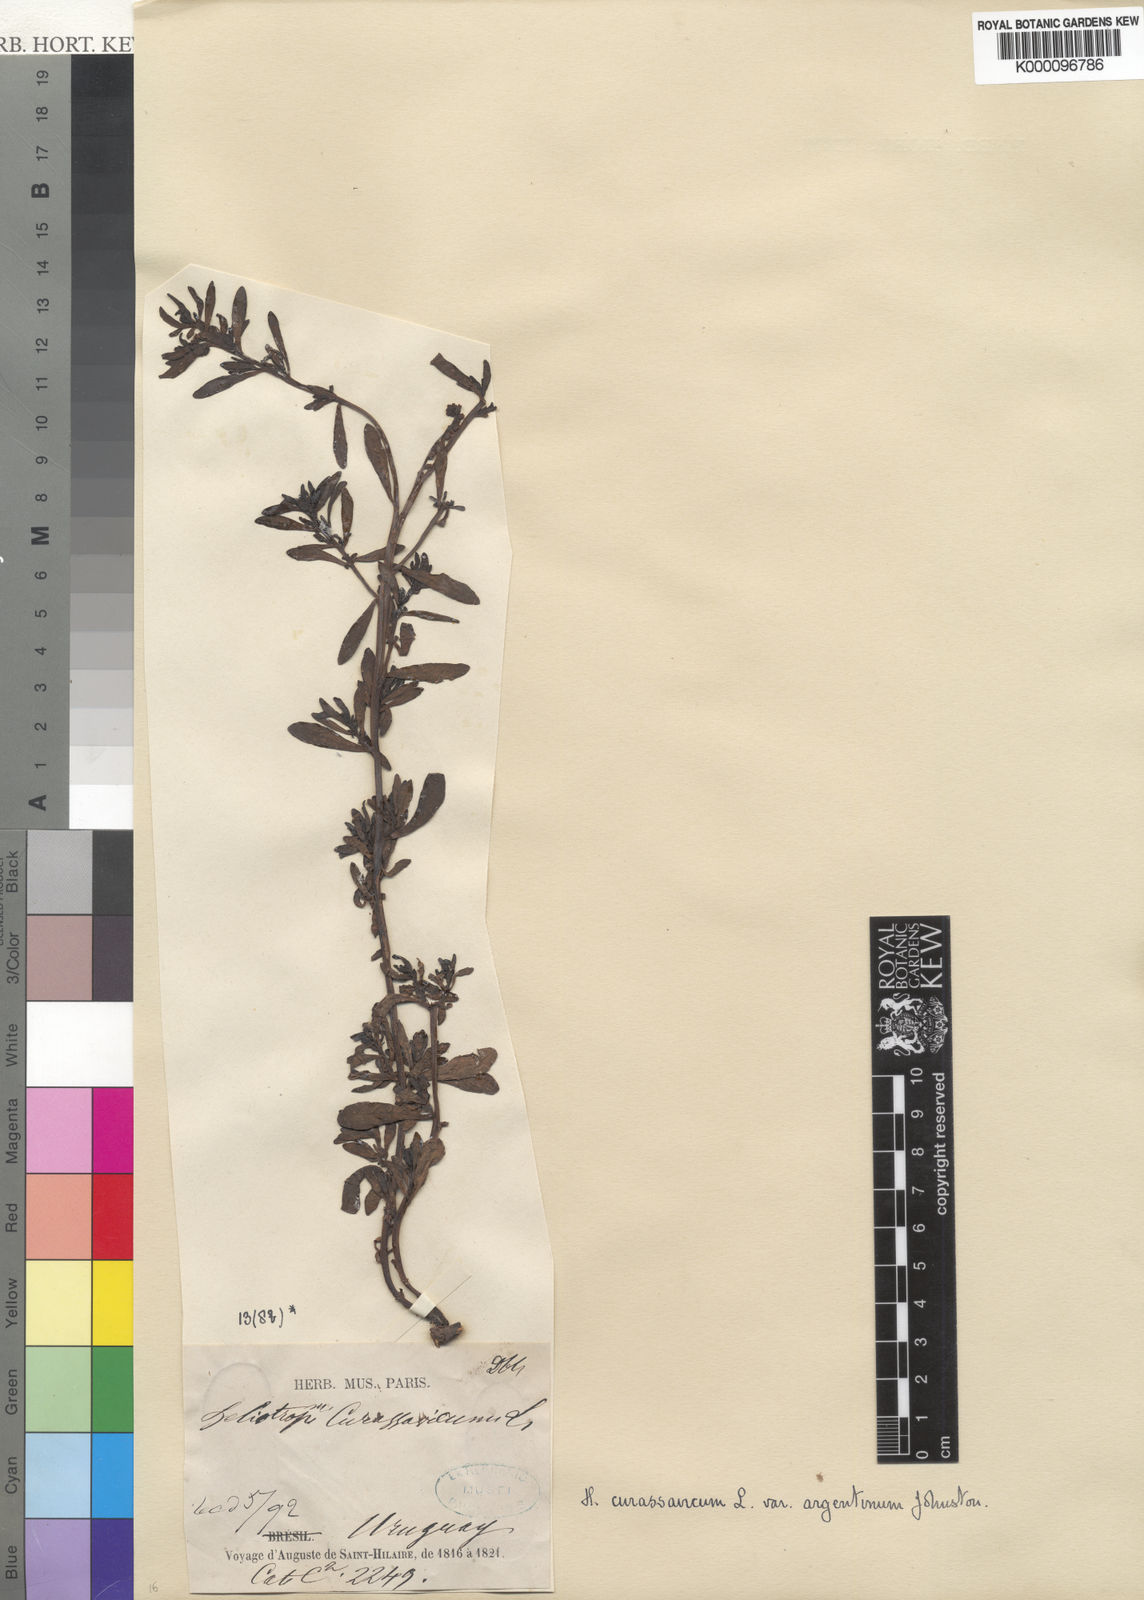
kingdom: Plantae
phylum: Tracheophyta
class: Magnoliopsida
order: Boraginales
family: Heliotropiaceae
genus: Heliotropium
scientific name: Heliotropium curassavicum
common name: Seaside heliotrope
